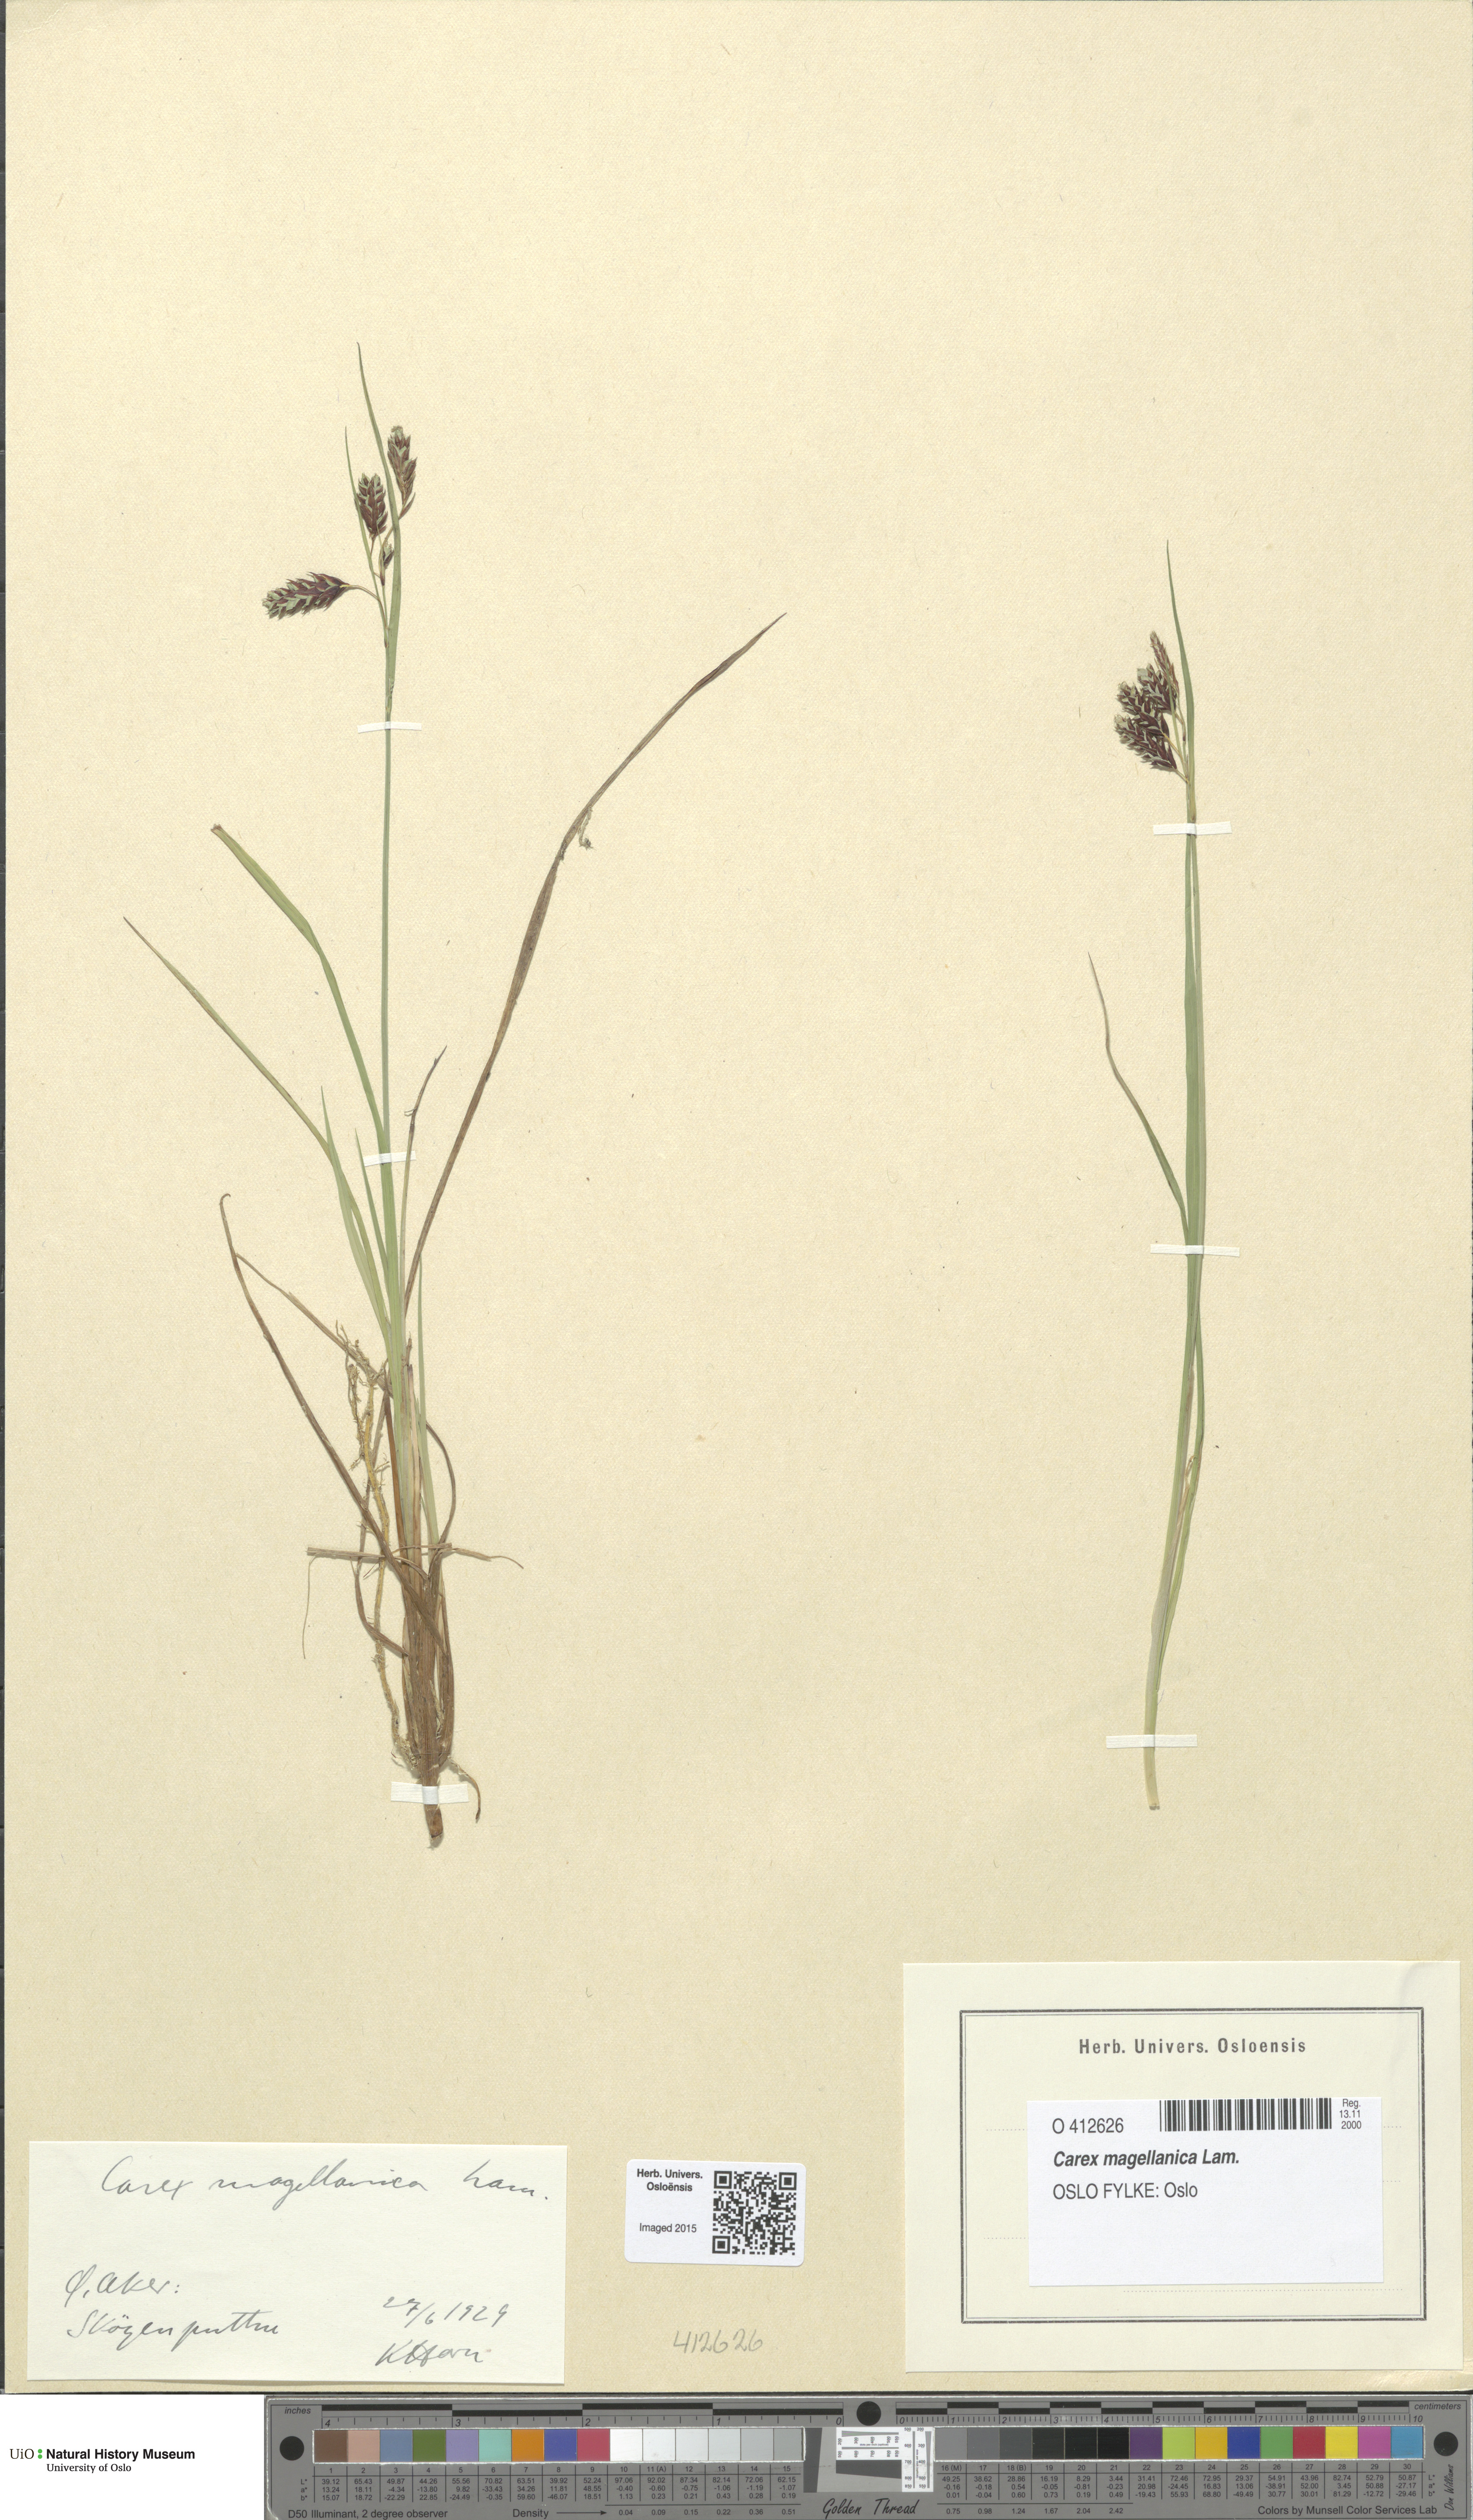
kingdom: Plantae
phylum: Tracheophyta
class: Liliopsida
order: Poales
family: Cyperaceae
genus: Carex
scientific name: Carex magellanica
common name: Bog sedge
